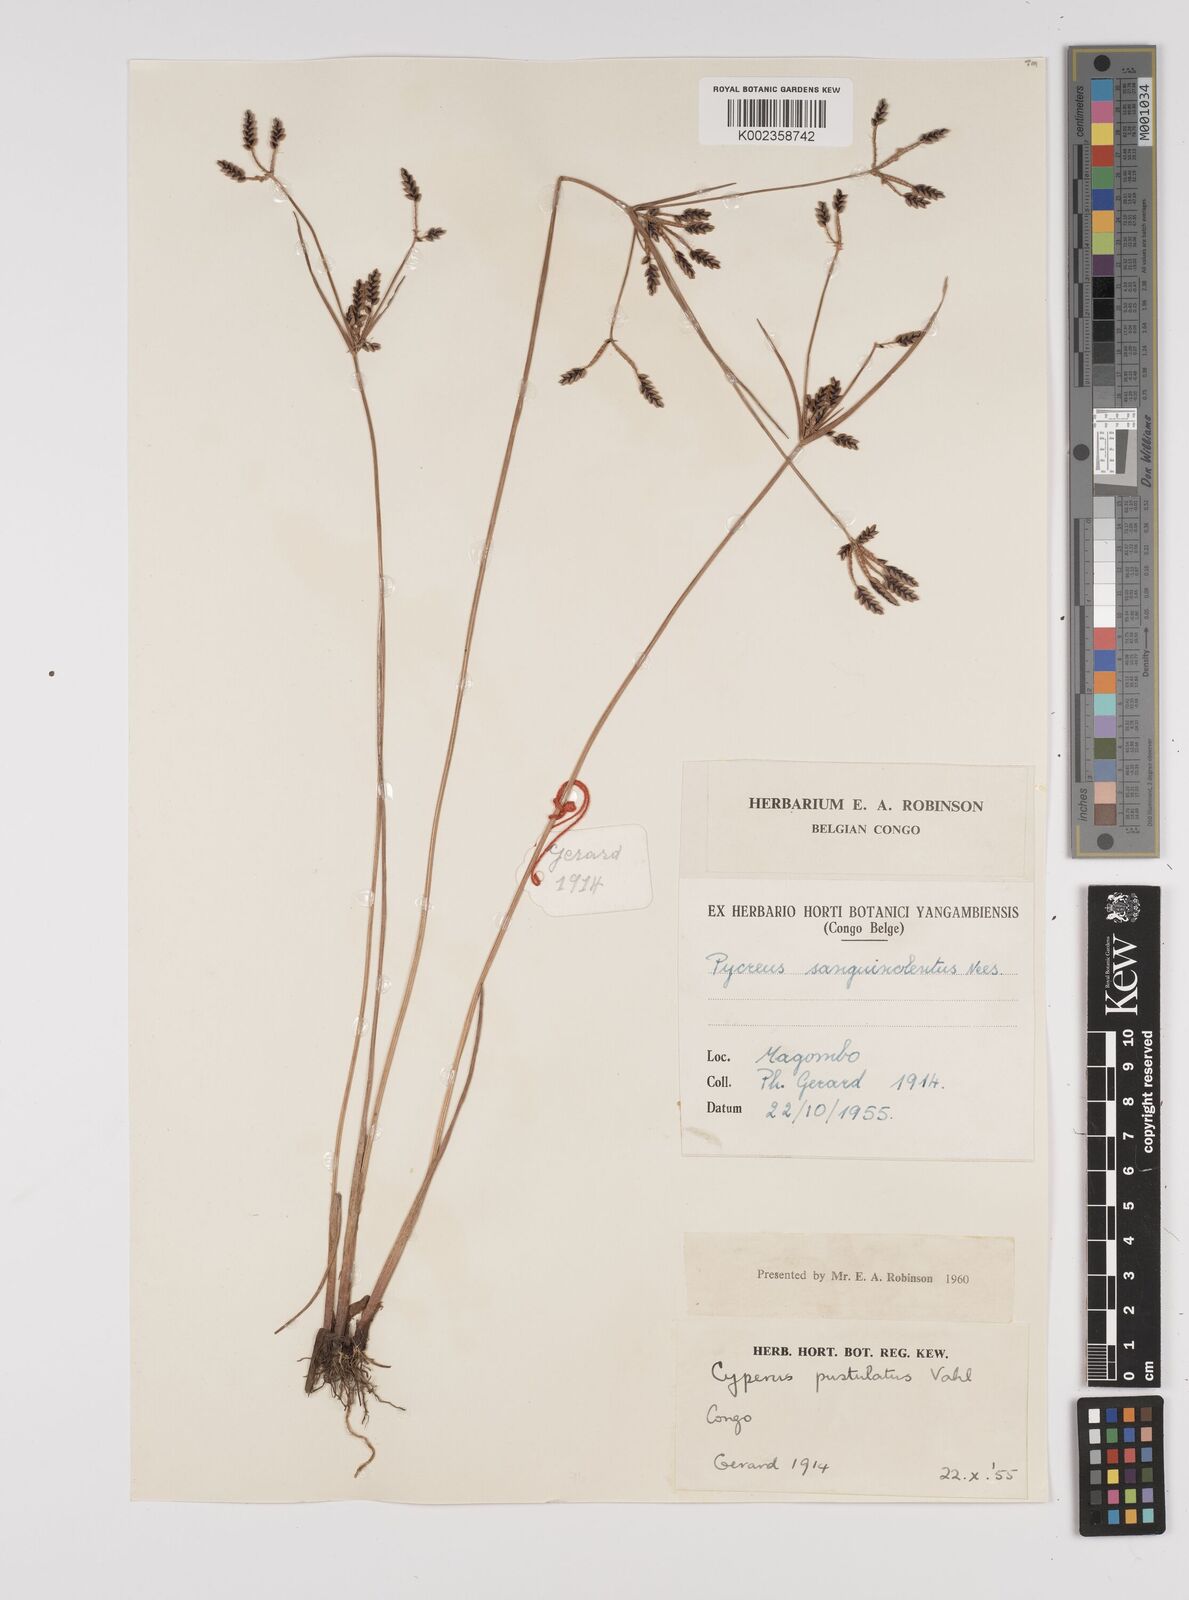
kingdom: Plantae
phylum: Tracheophyta
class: Liliopsida
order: Poales
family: Cyperaceae
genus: Cyperus
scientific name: Cyperus pustulatus
